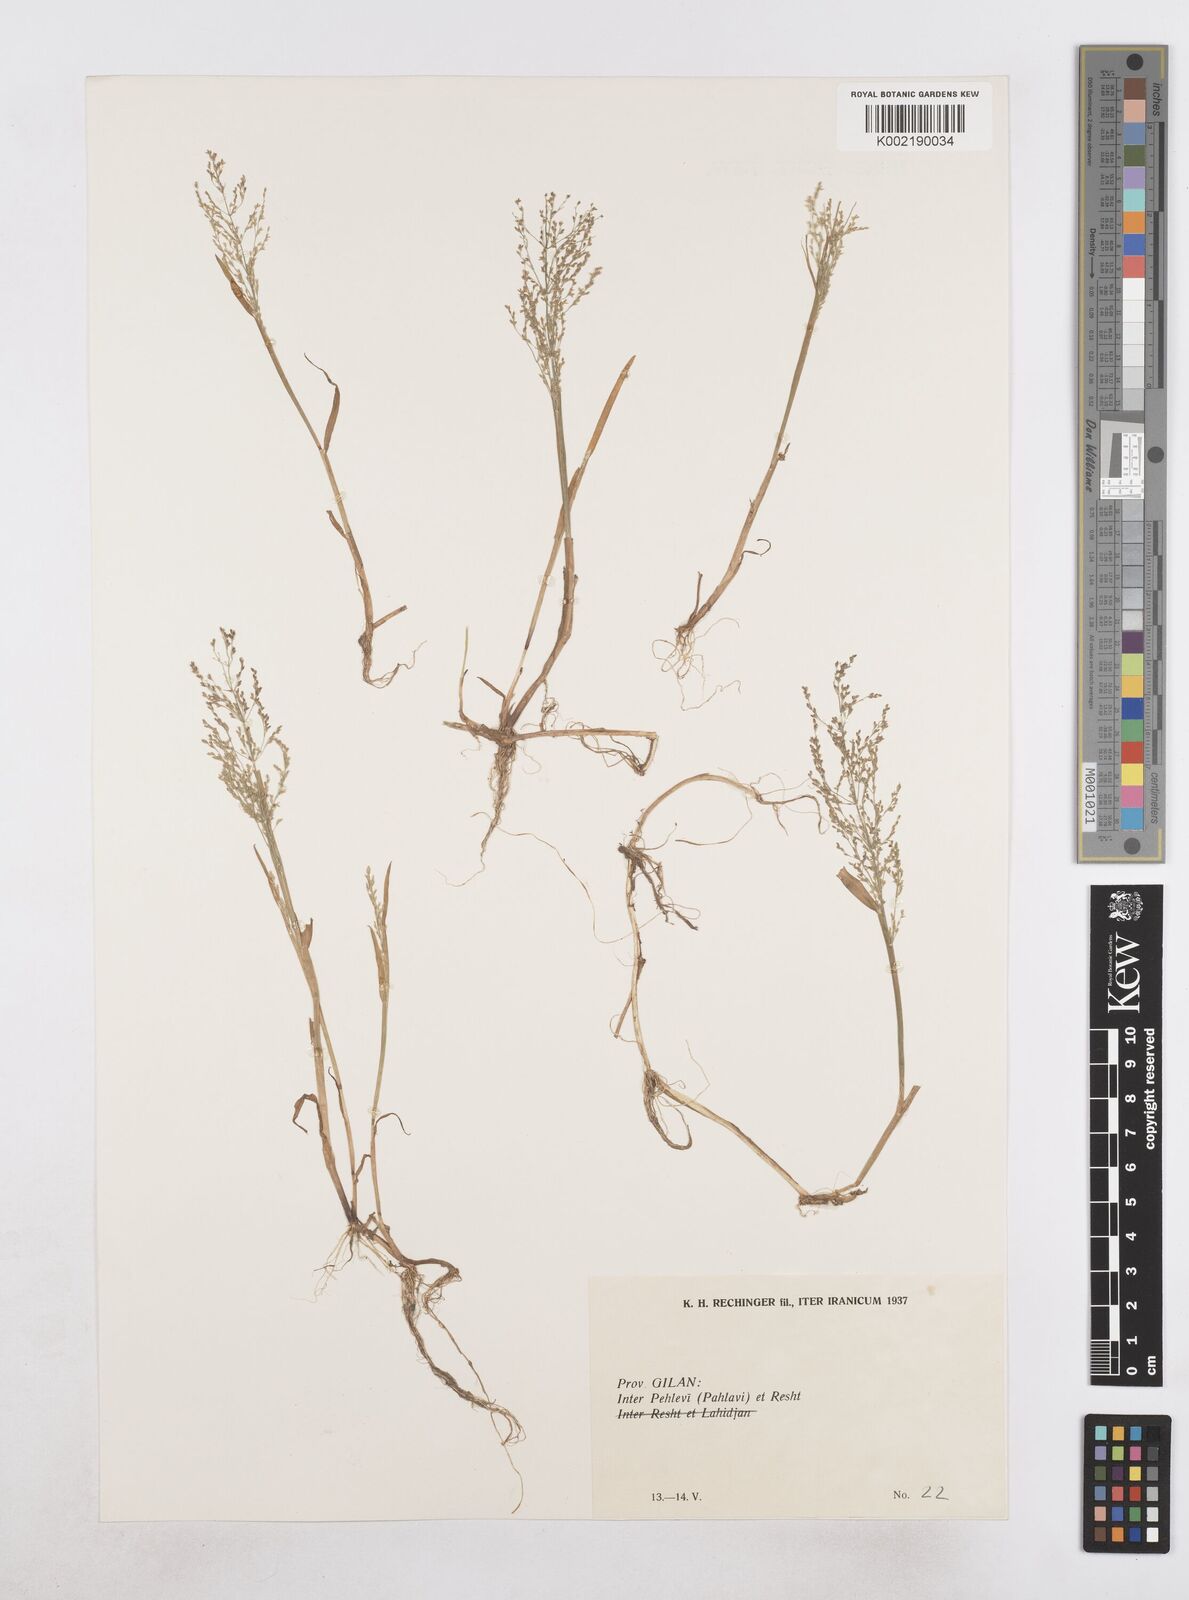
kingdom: Plantae
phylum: Tracheophyta
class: Liliopsida
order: Poales
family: Poaceae
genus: Catabrosa
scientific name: Catabrosa aquatica
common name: Whorl-grass
